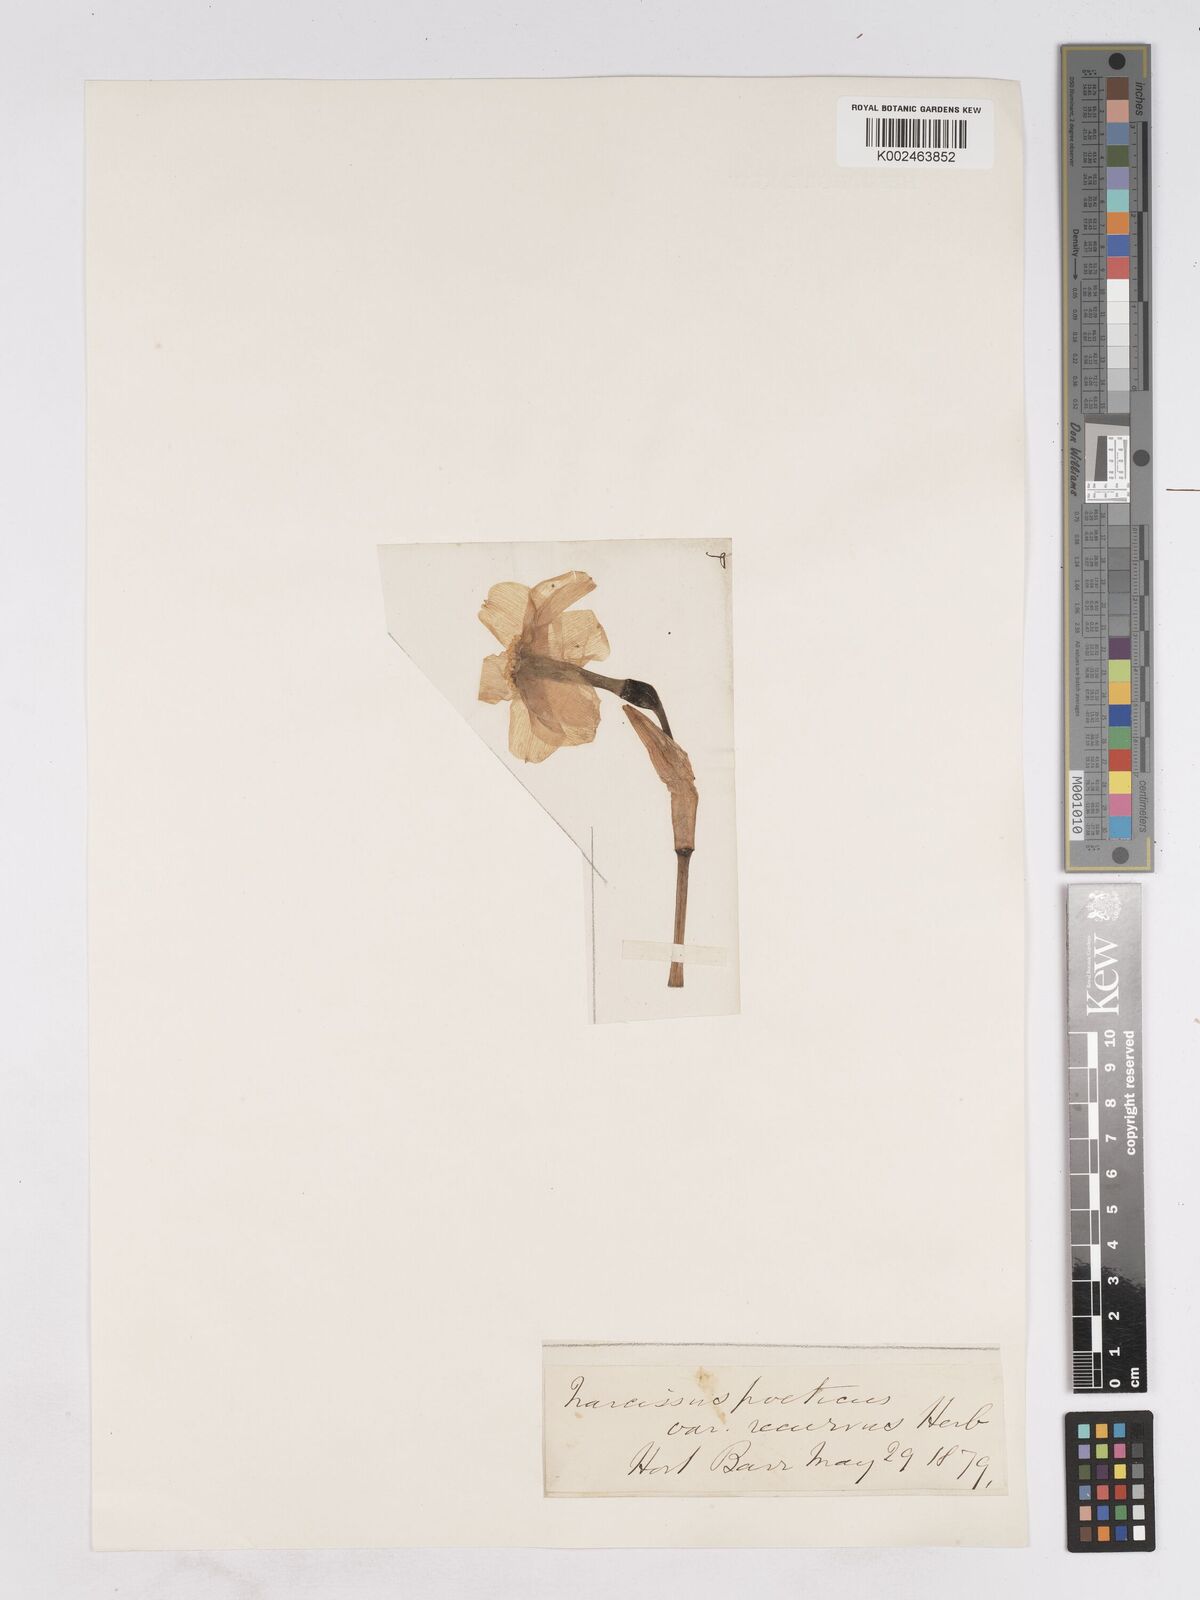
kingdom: Plantae
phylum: Tracheophyta
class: Liliopsida
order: Asparagales
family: Amaryllidaceae
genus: Narcissus
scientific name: Narcissus poeticus
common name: Pheasant's-eye daffodil
